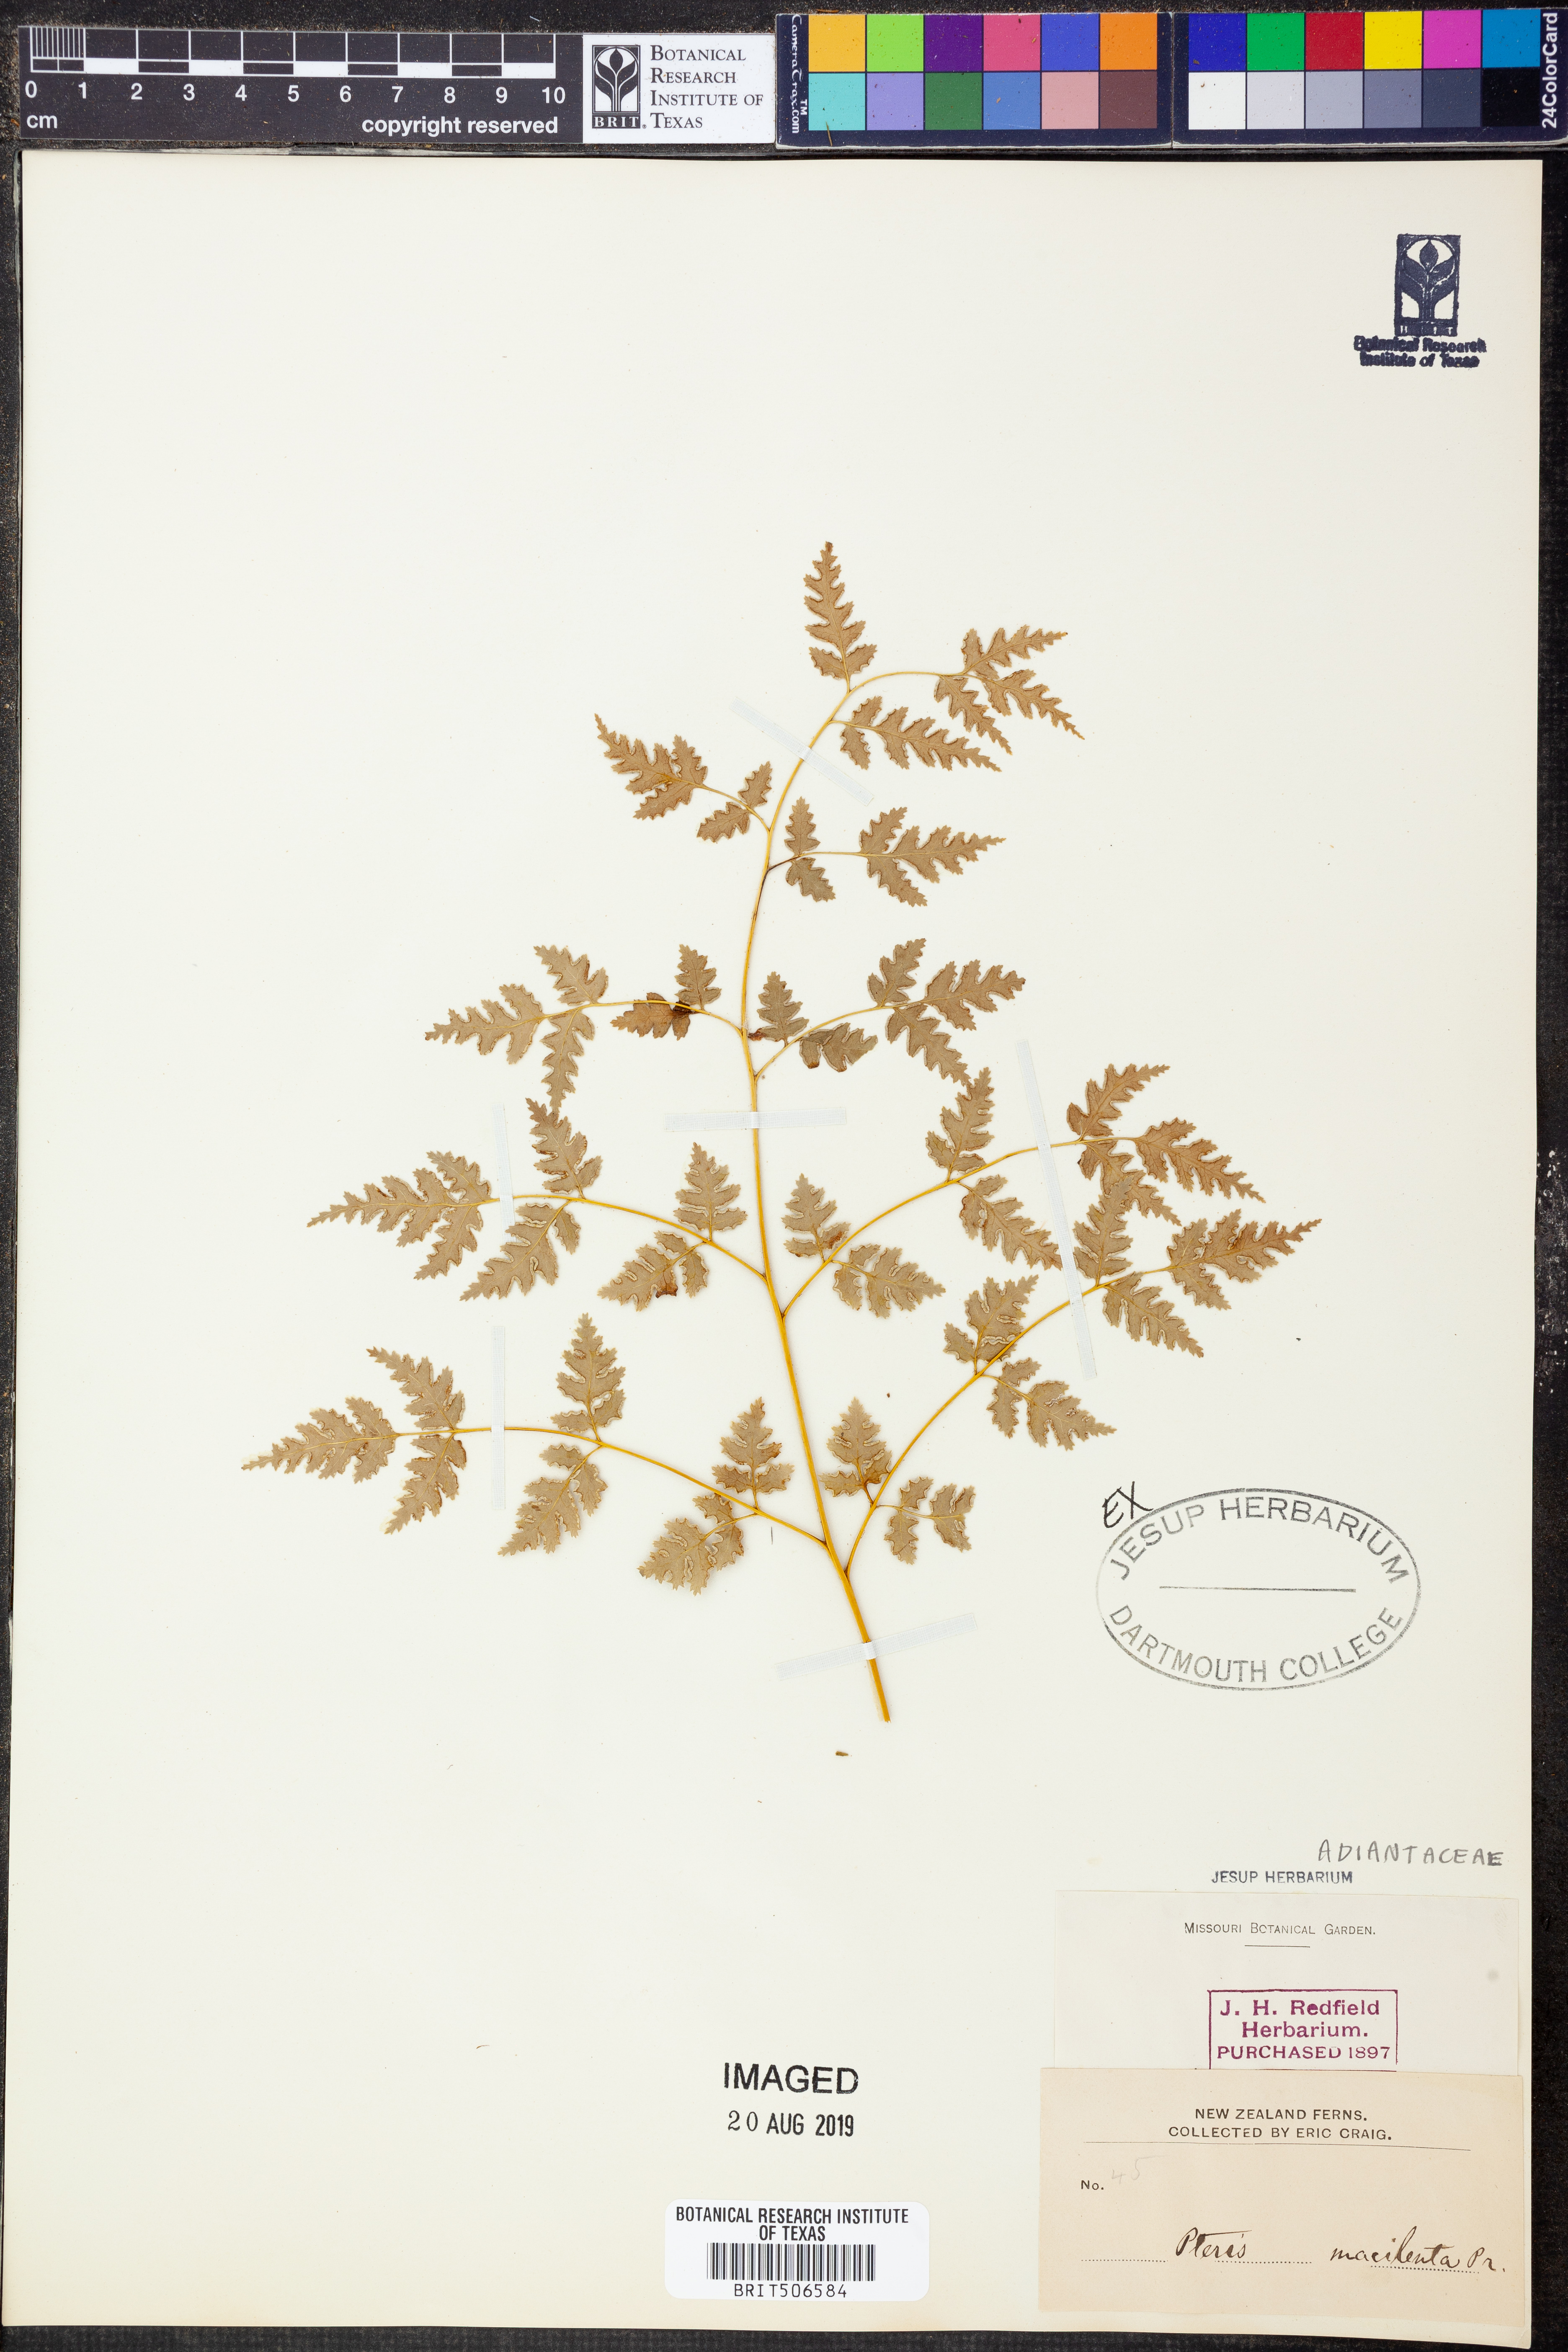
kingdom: Plantae
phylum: Tracheophyta
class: Polypodiopsida
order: Polypodiales
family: Pteridaceae
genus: Pteris
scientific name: Pteris macilenta
